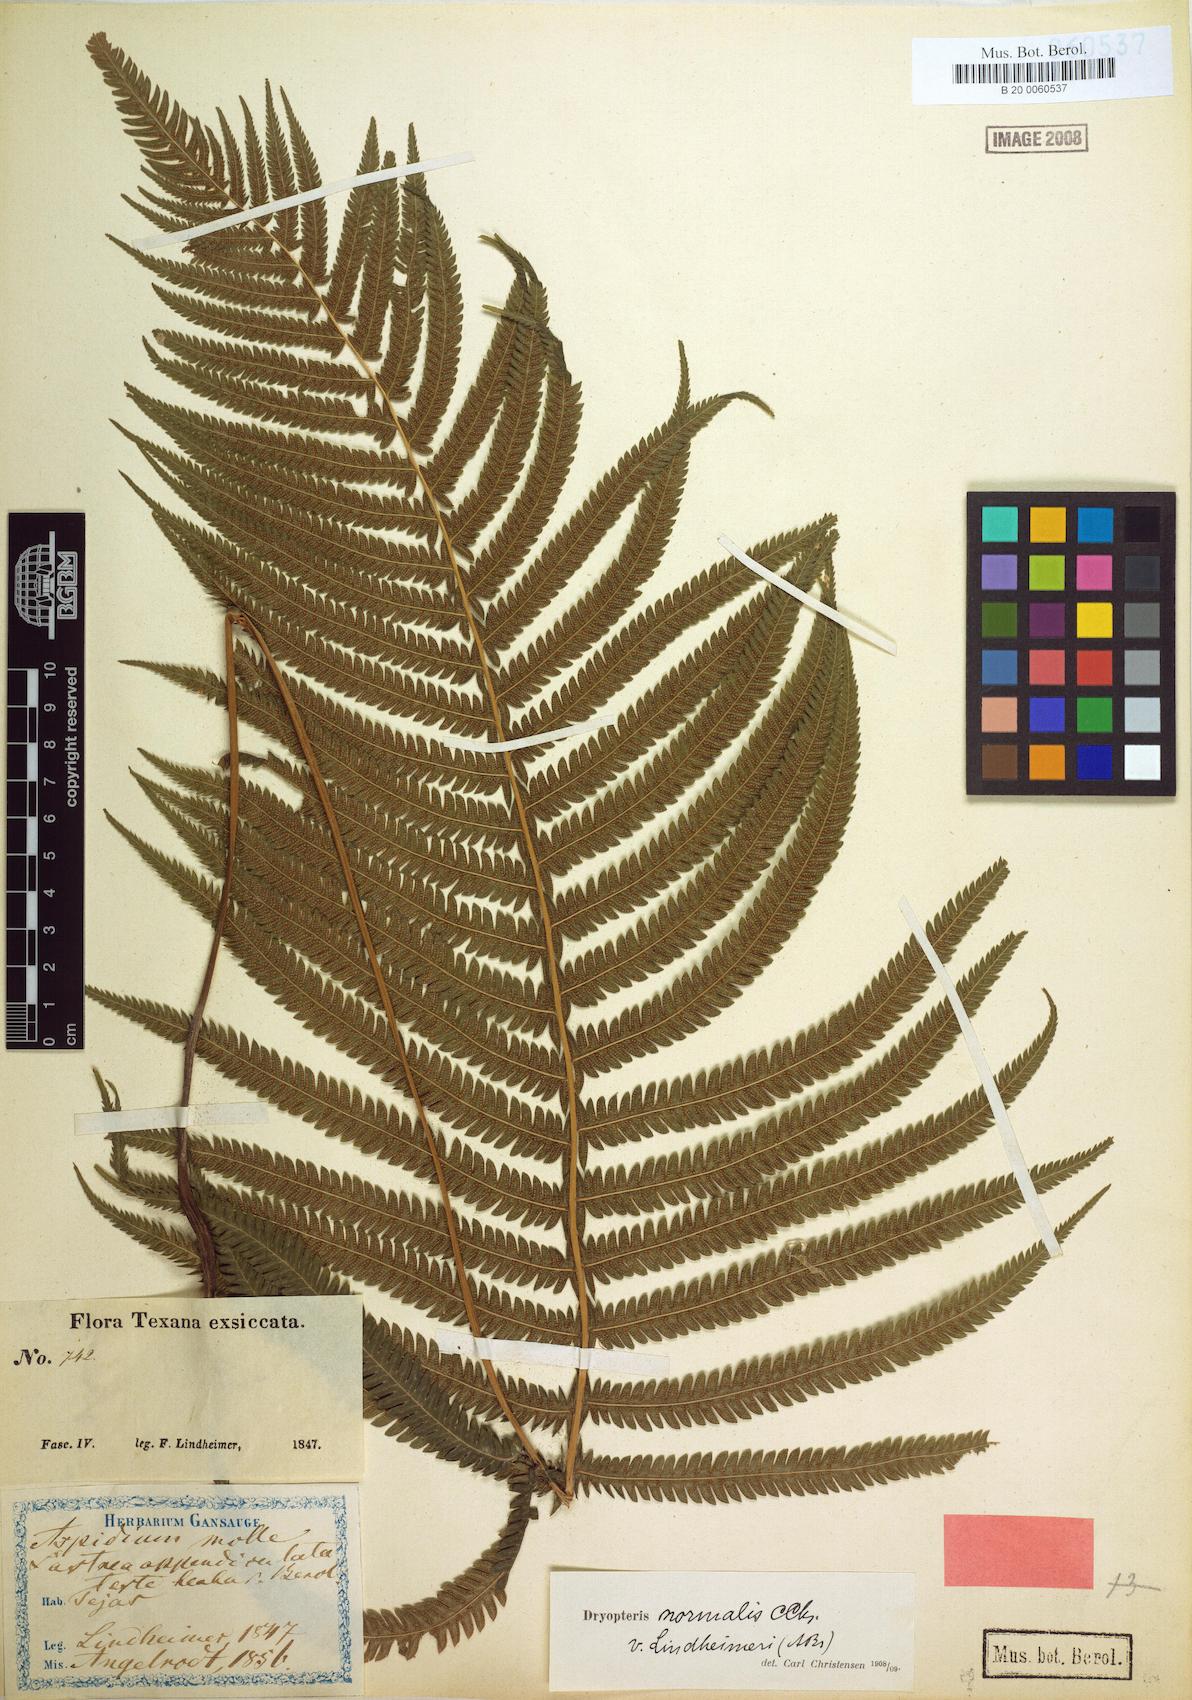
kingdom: Plantae
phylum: Tracheophyta
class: Polypodiopsida
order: Polypodiales
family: Thelypteridaceae
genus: Pelazoneuron
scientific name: Pelazoneuron ovatum
